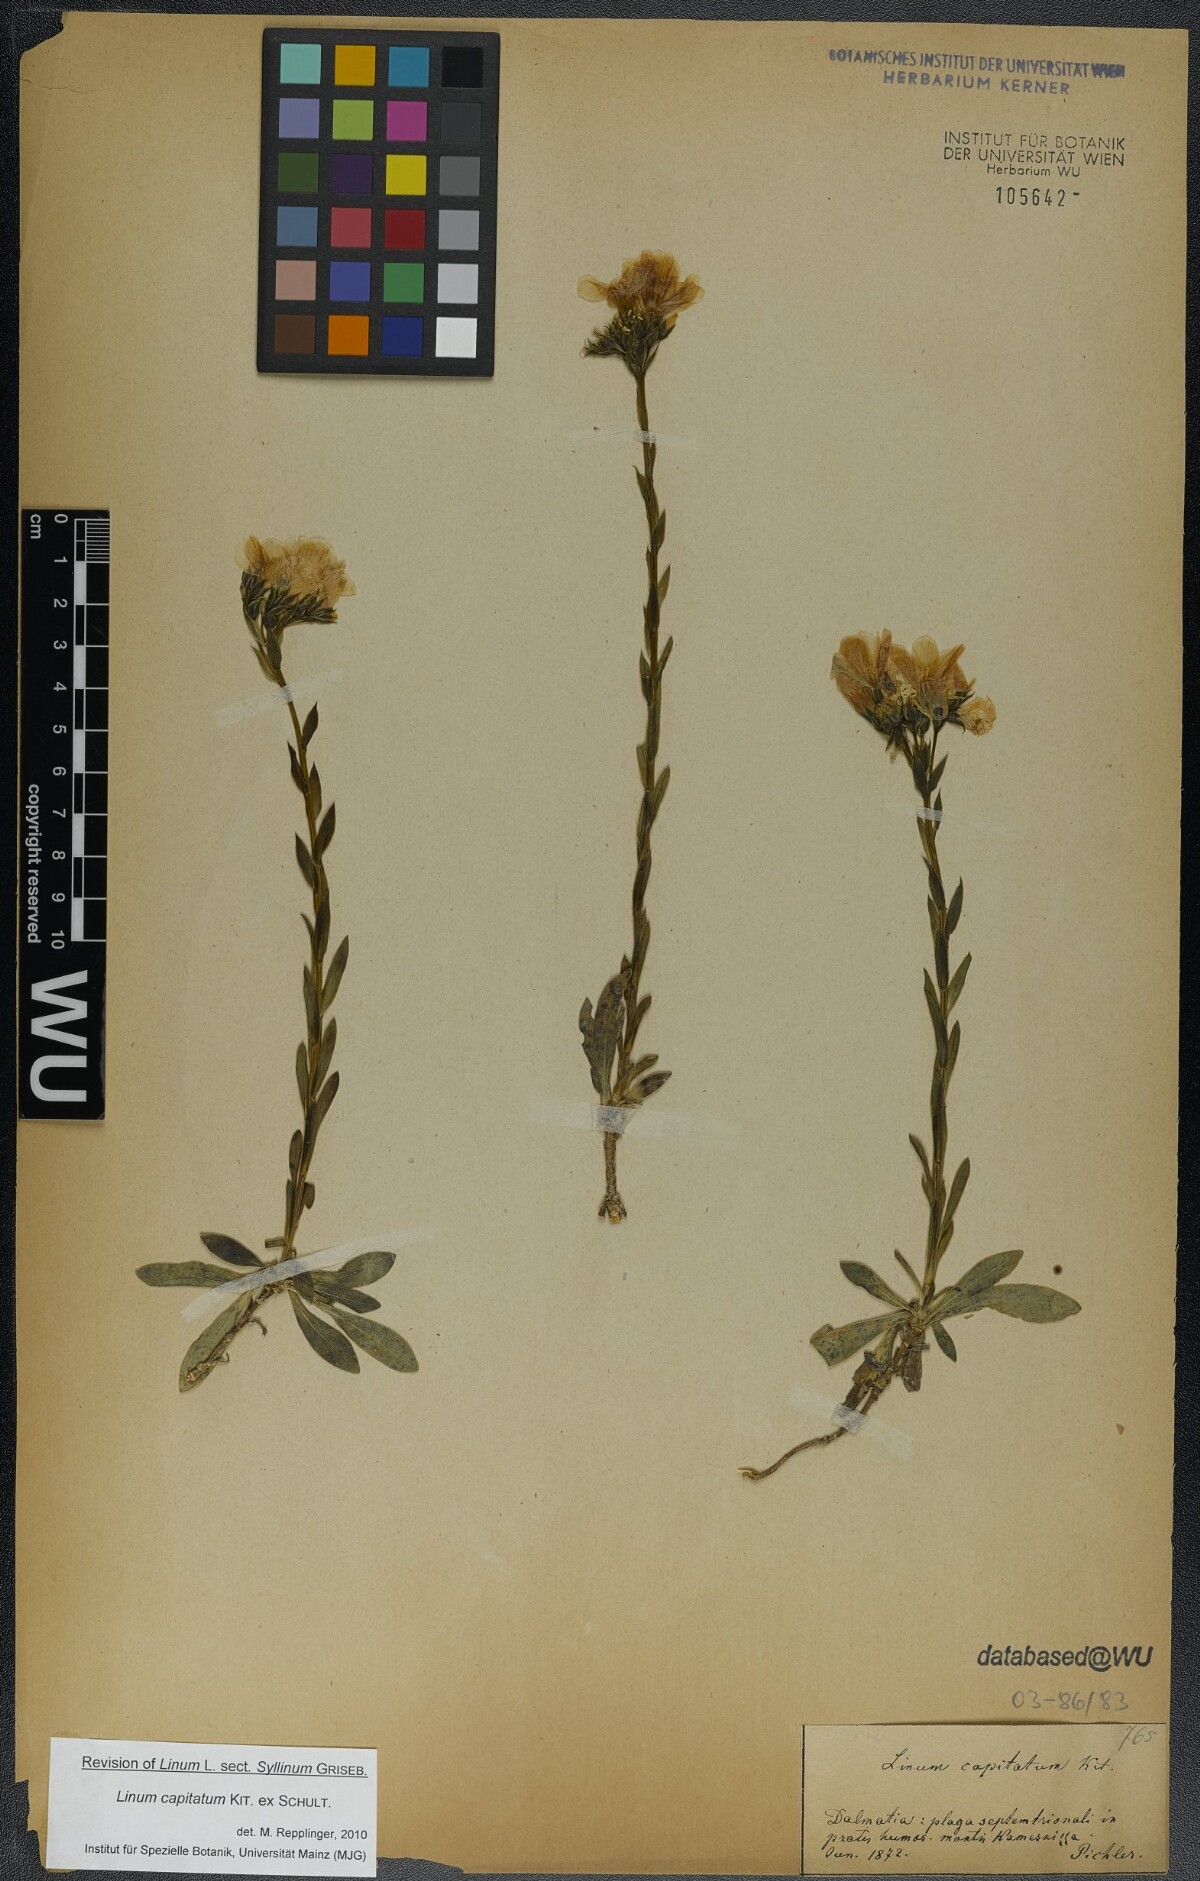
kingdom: Plantae
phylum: Tracheophyta
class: Magnoliopsida
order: Malpighiales
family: Linaceae
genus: Linum
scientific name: Linum capitatum
